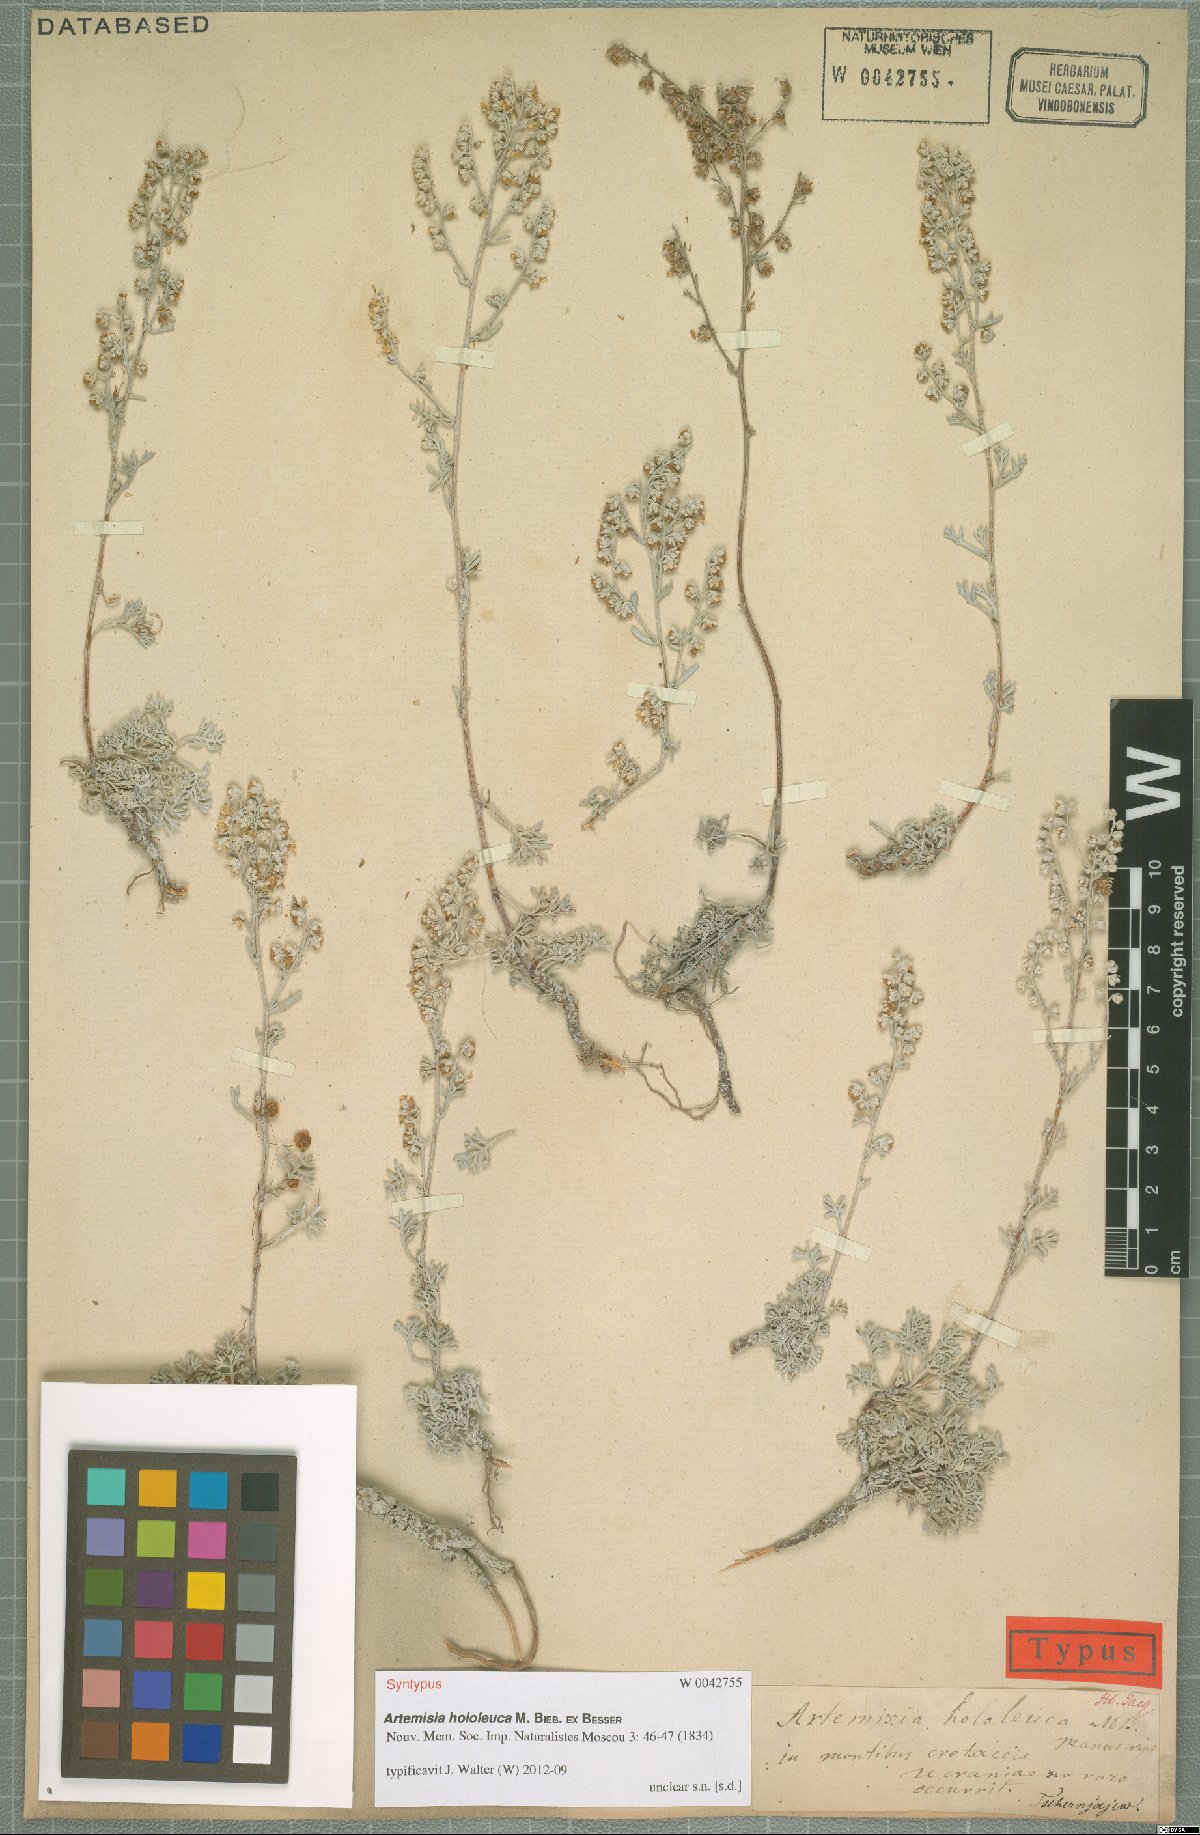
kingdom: Plantae
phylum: Tracheophyta
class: Magnoliopsida
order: Asterales
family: Asteraceae
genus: Artemisia
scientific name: Artemisia hololeuca
